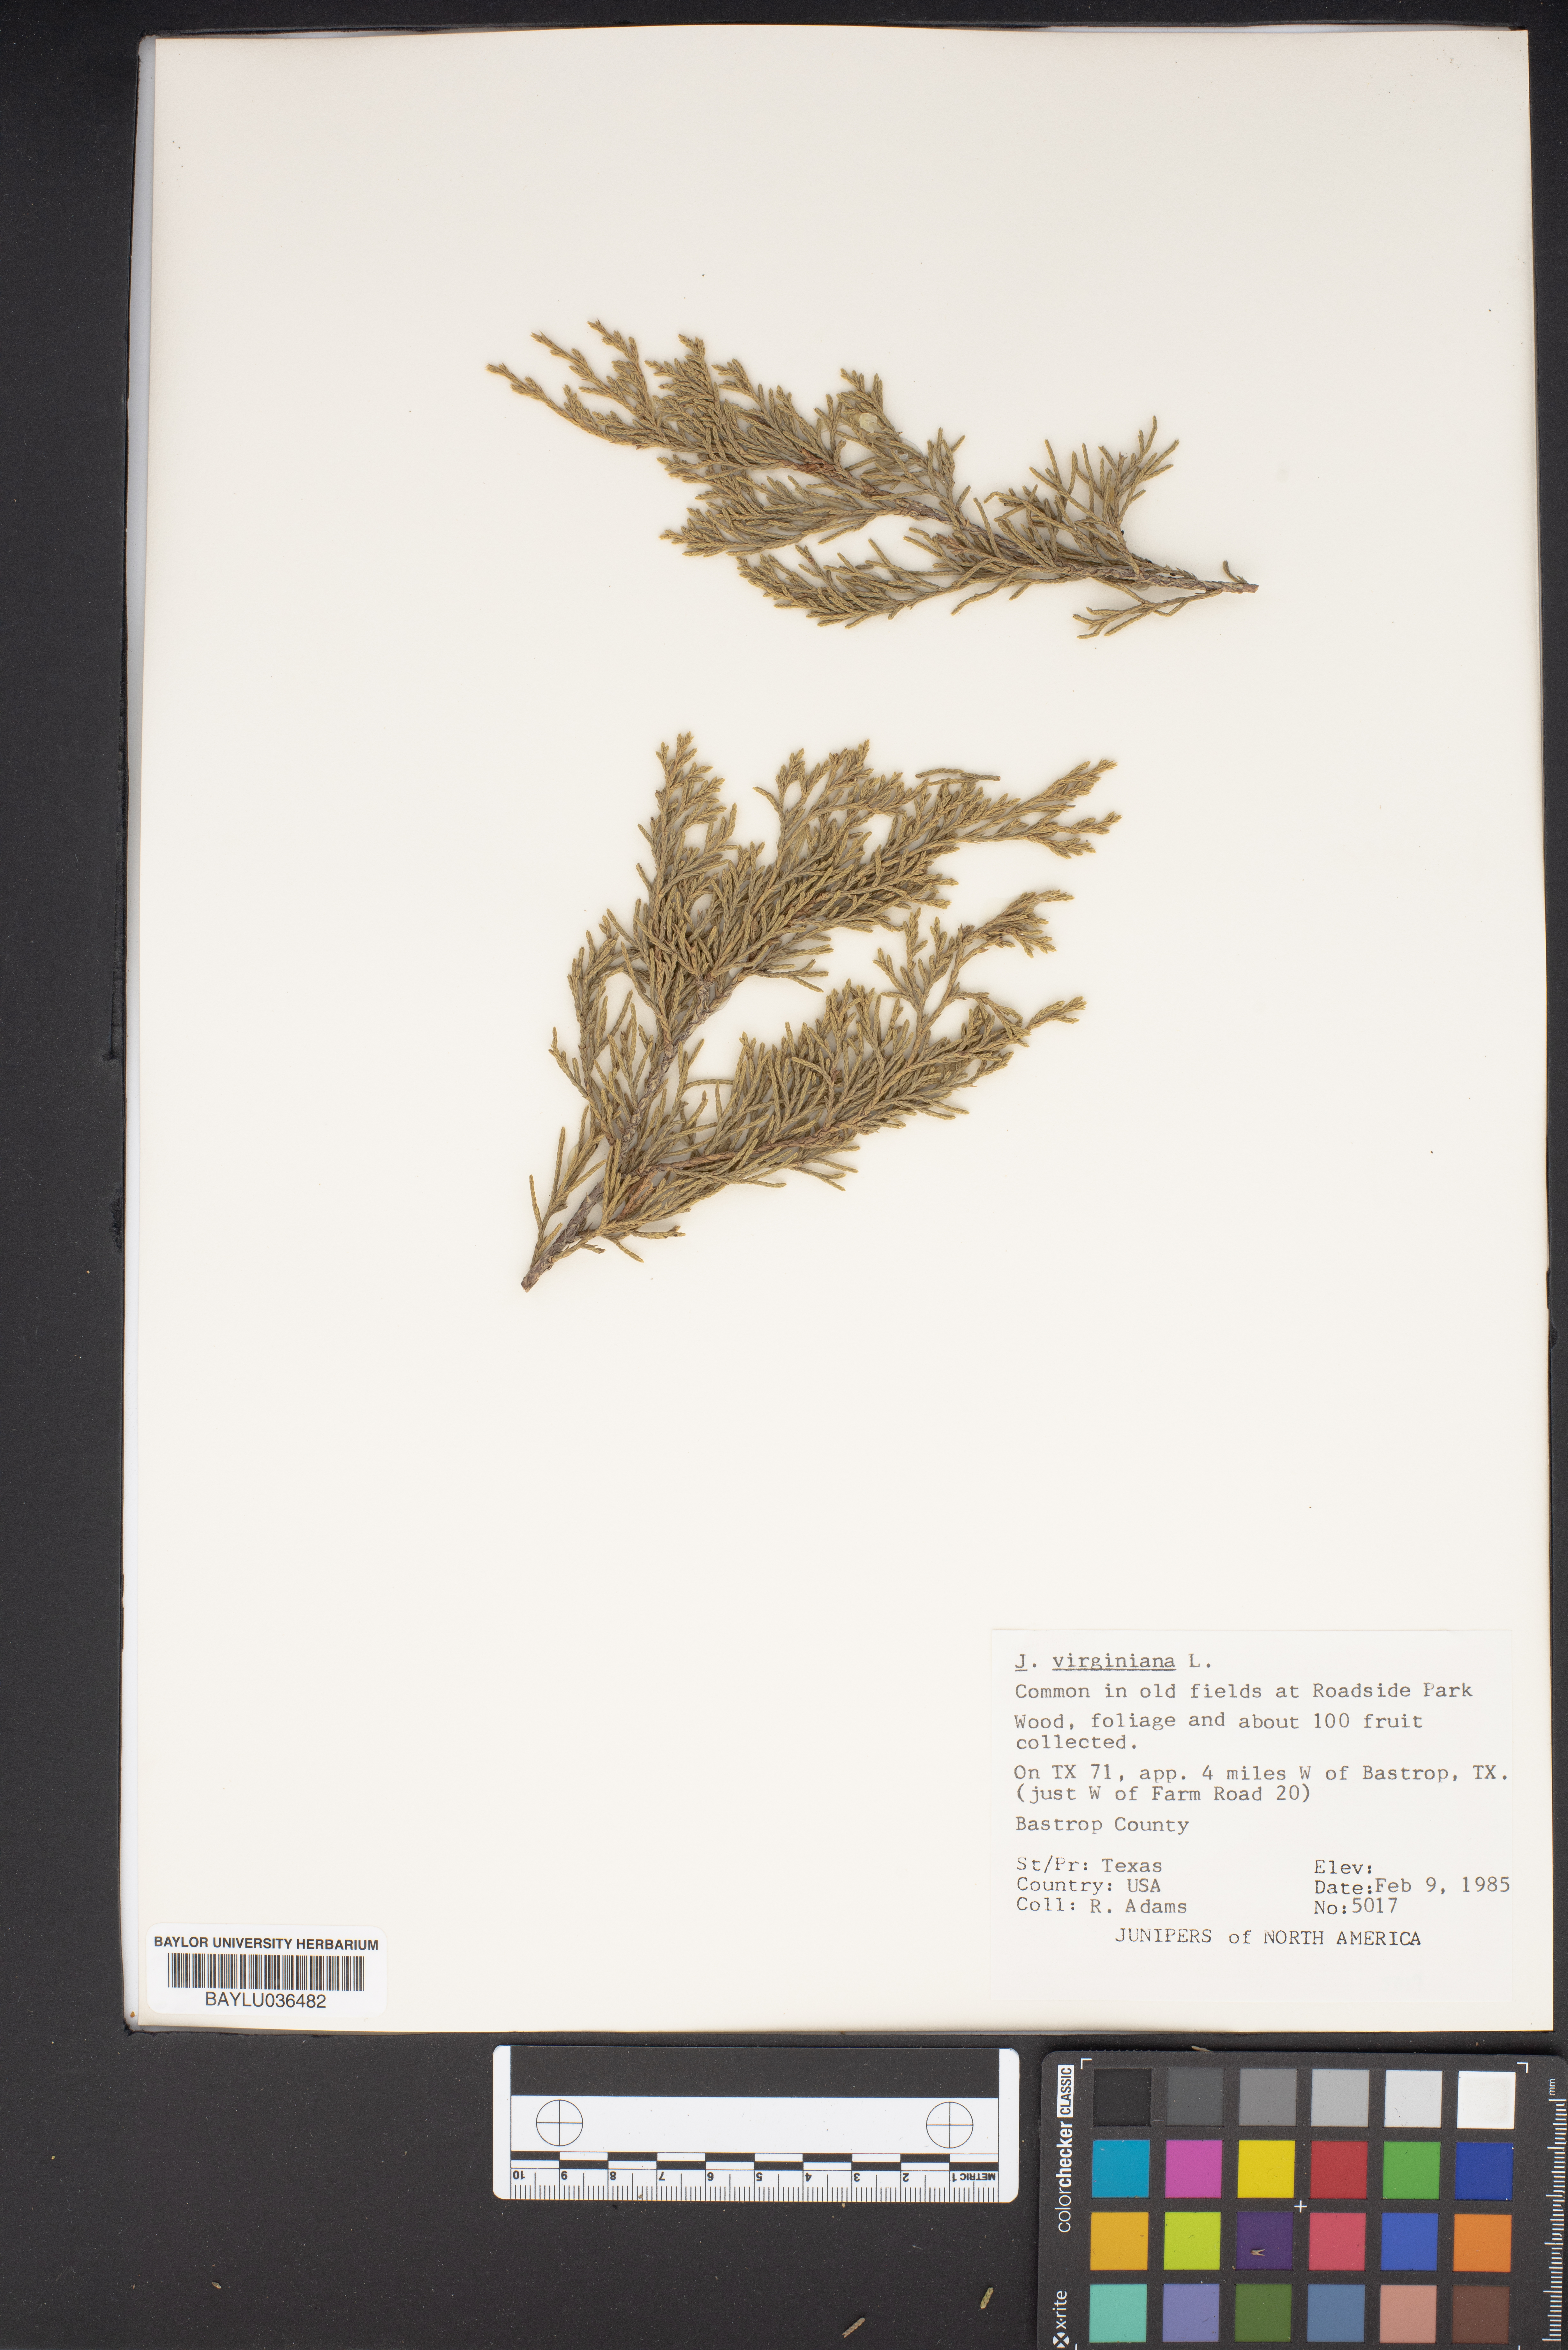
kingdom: Plantae
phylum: Tracheophyta
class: Pinopsida
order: Pinales
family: Cupressaceae
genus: Juniperus
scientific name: Juniperus virginiana
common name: Red juniper
